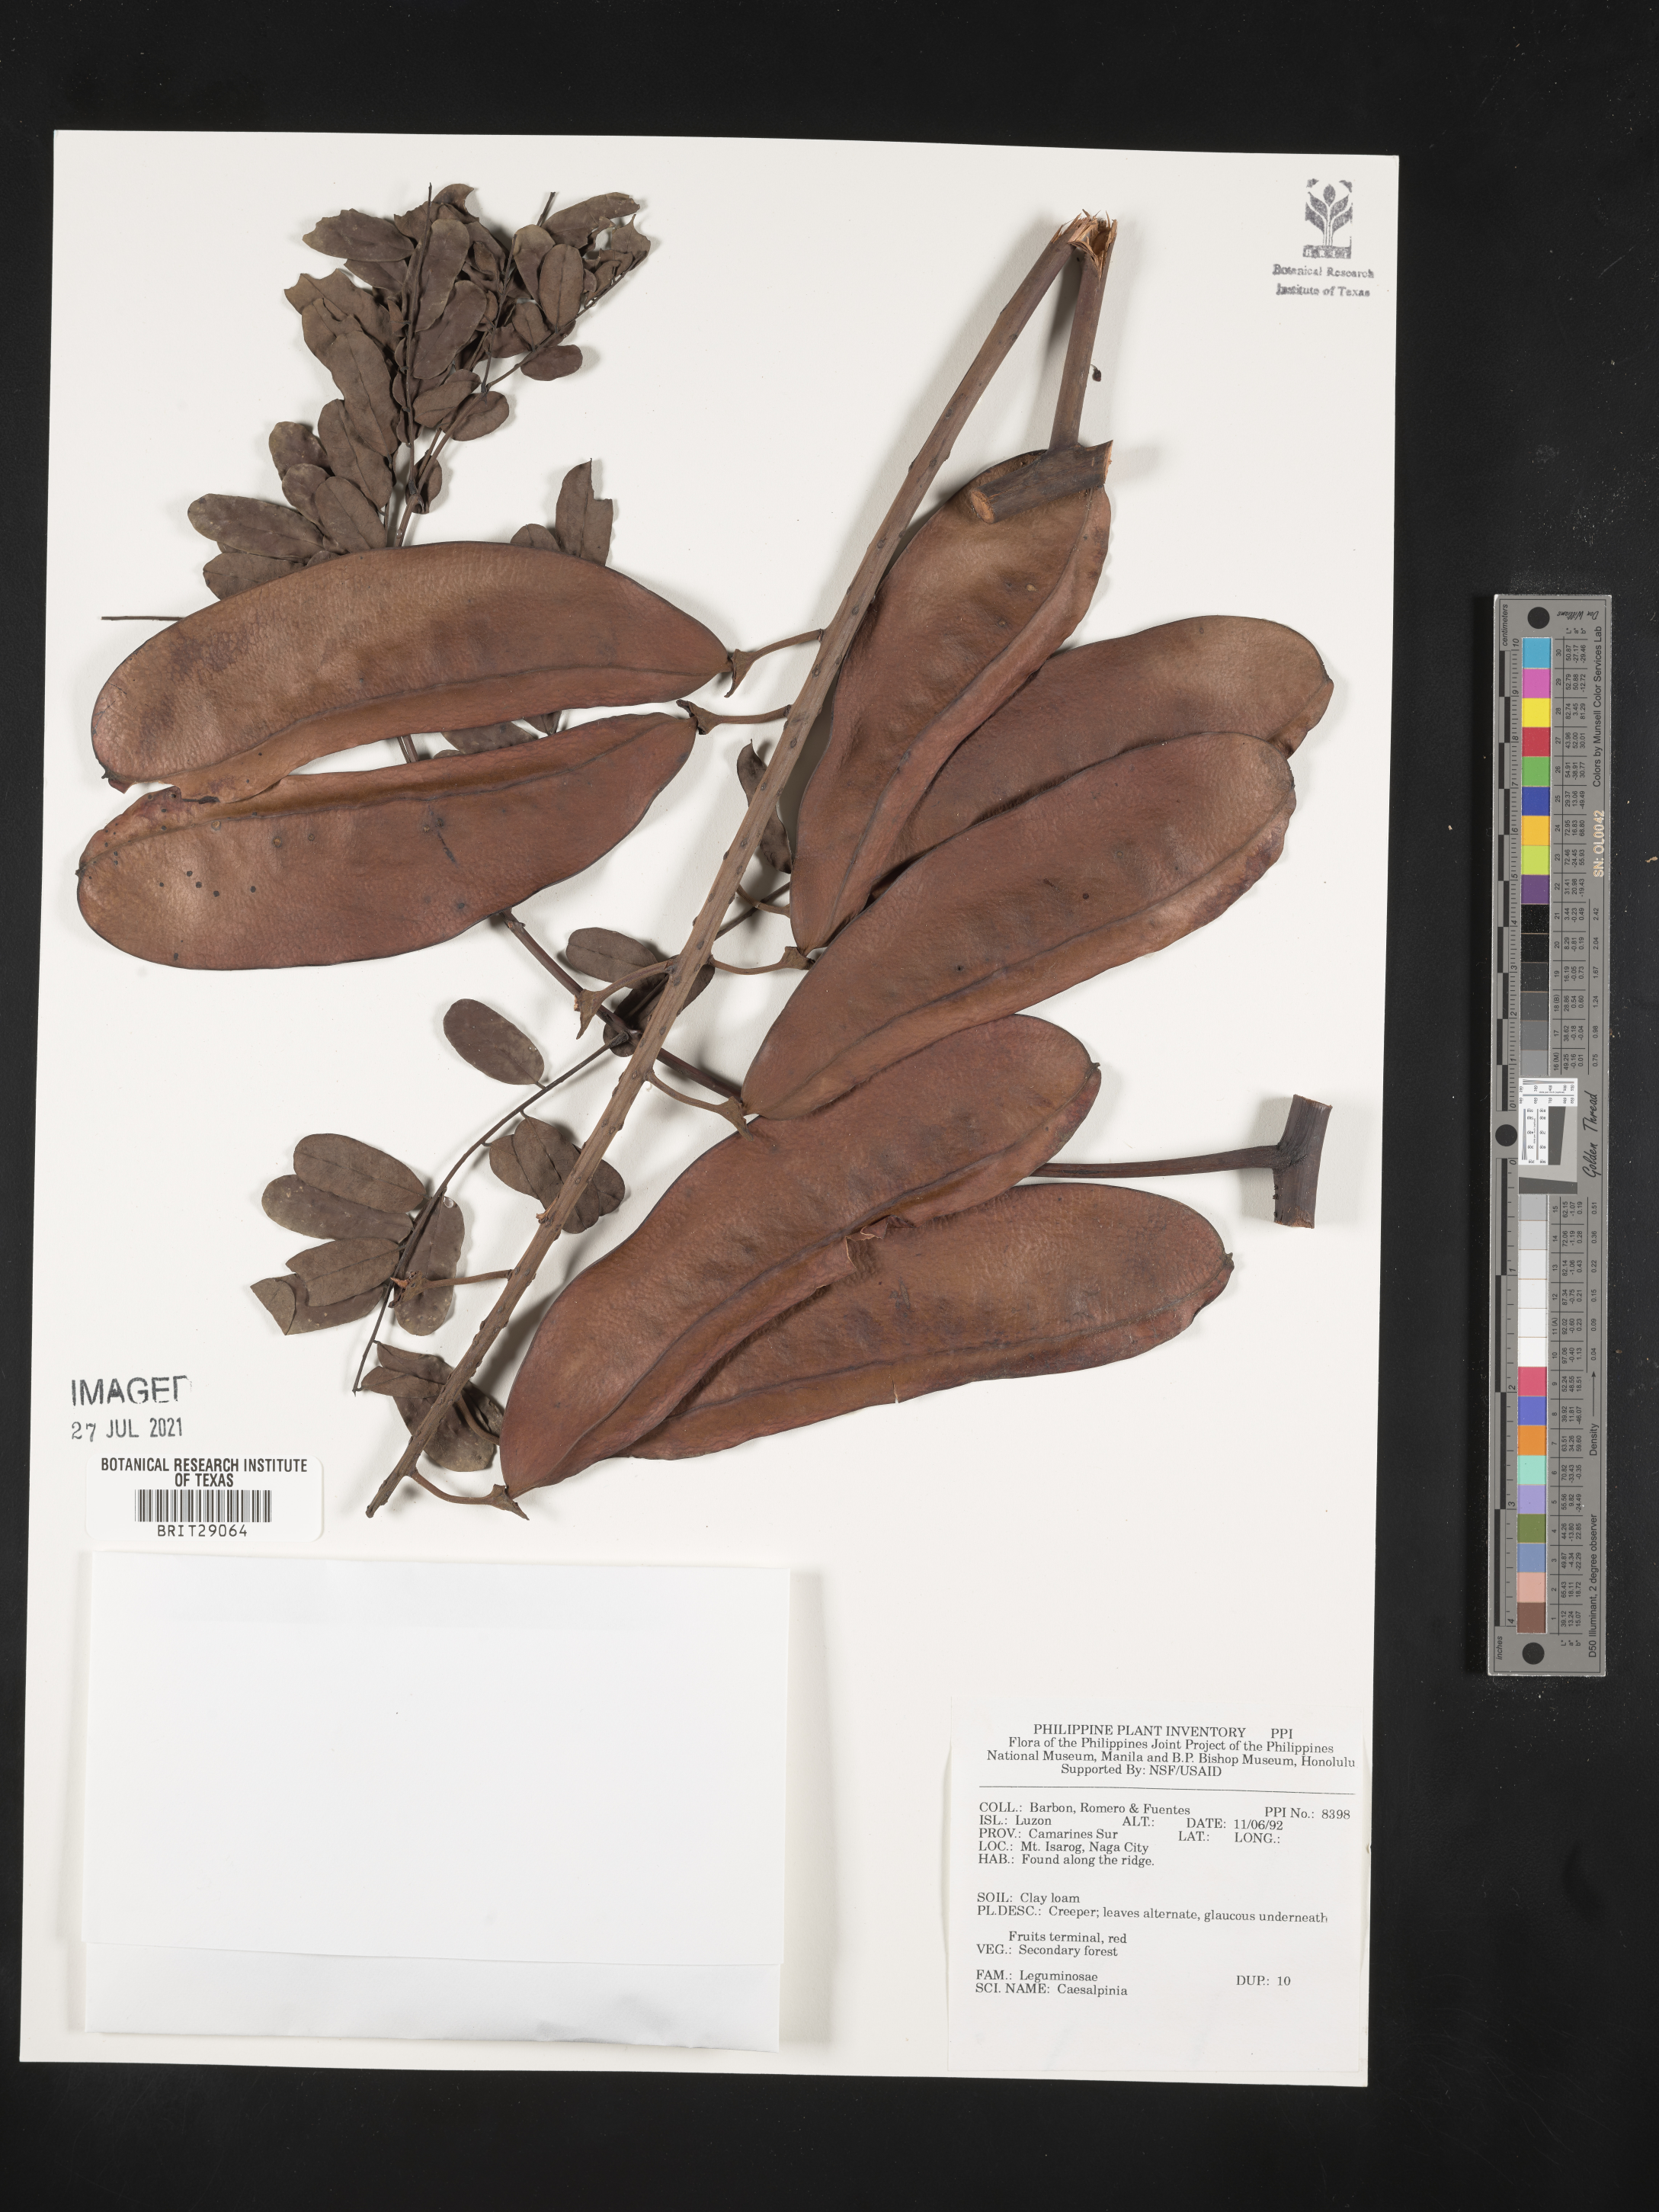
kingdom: Plantae
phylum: Tracheophyta
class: Magnoliopsida
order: Fabales
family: Fabaceae
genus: Caesalpinia
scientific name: Caesalpinia
